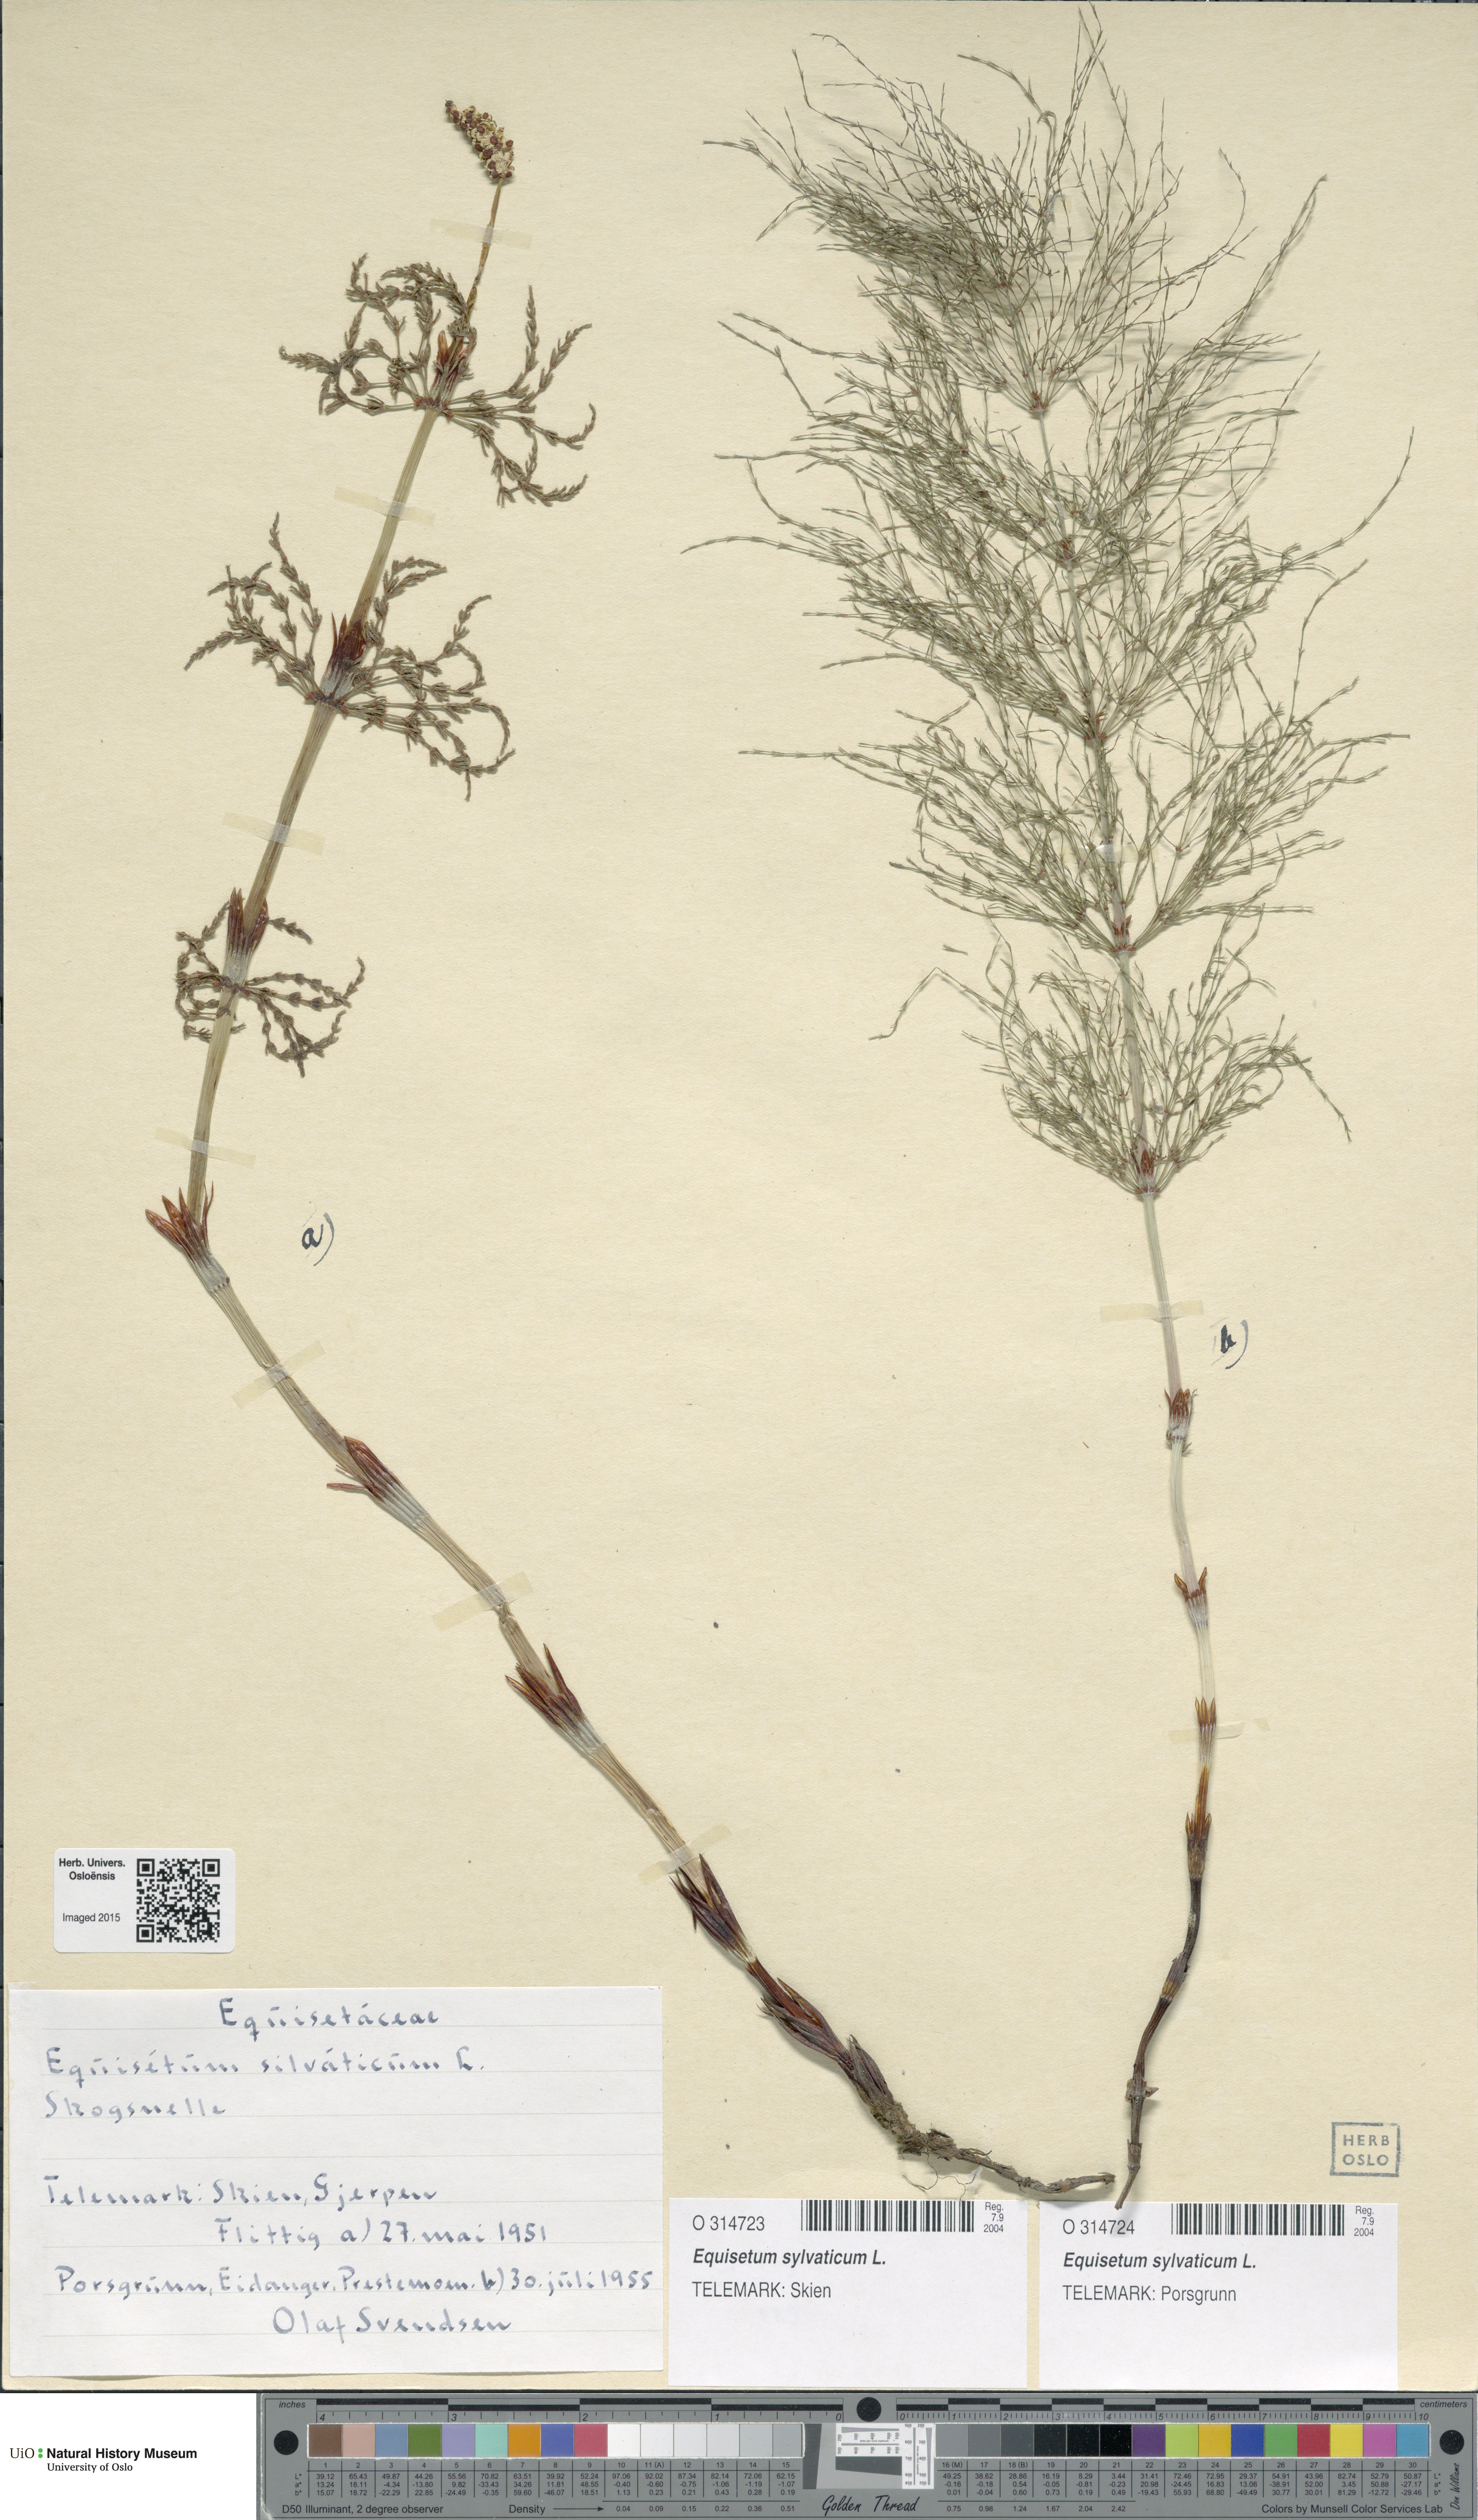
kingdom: Plantae
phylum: Tracheophyta
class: Polypodiopsida
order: Equisetales
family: Equisetaceae
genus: Equisetum
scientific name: Equisetum sylvaticum
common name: Wood horsetail
